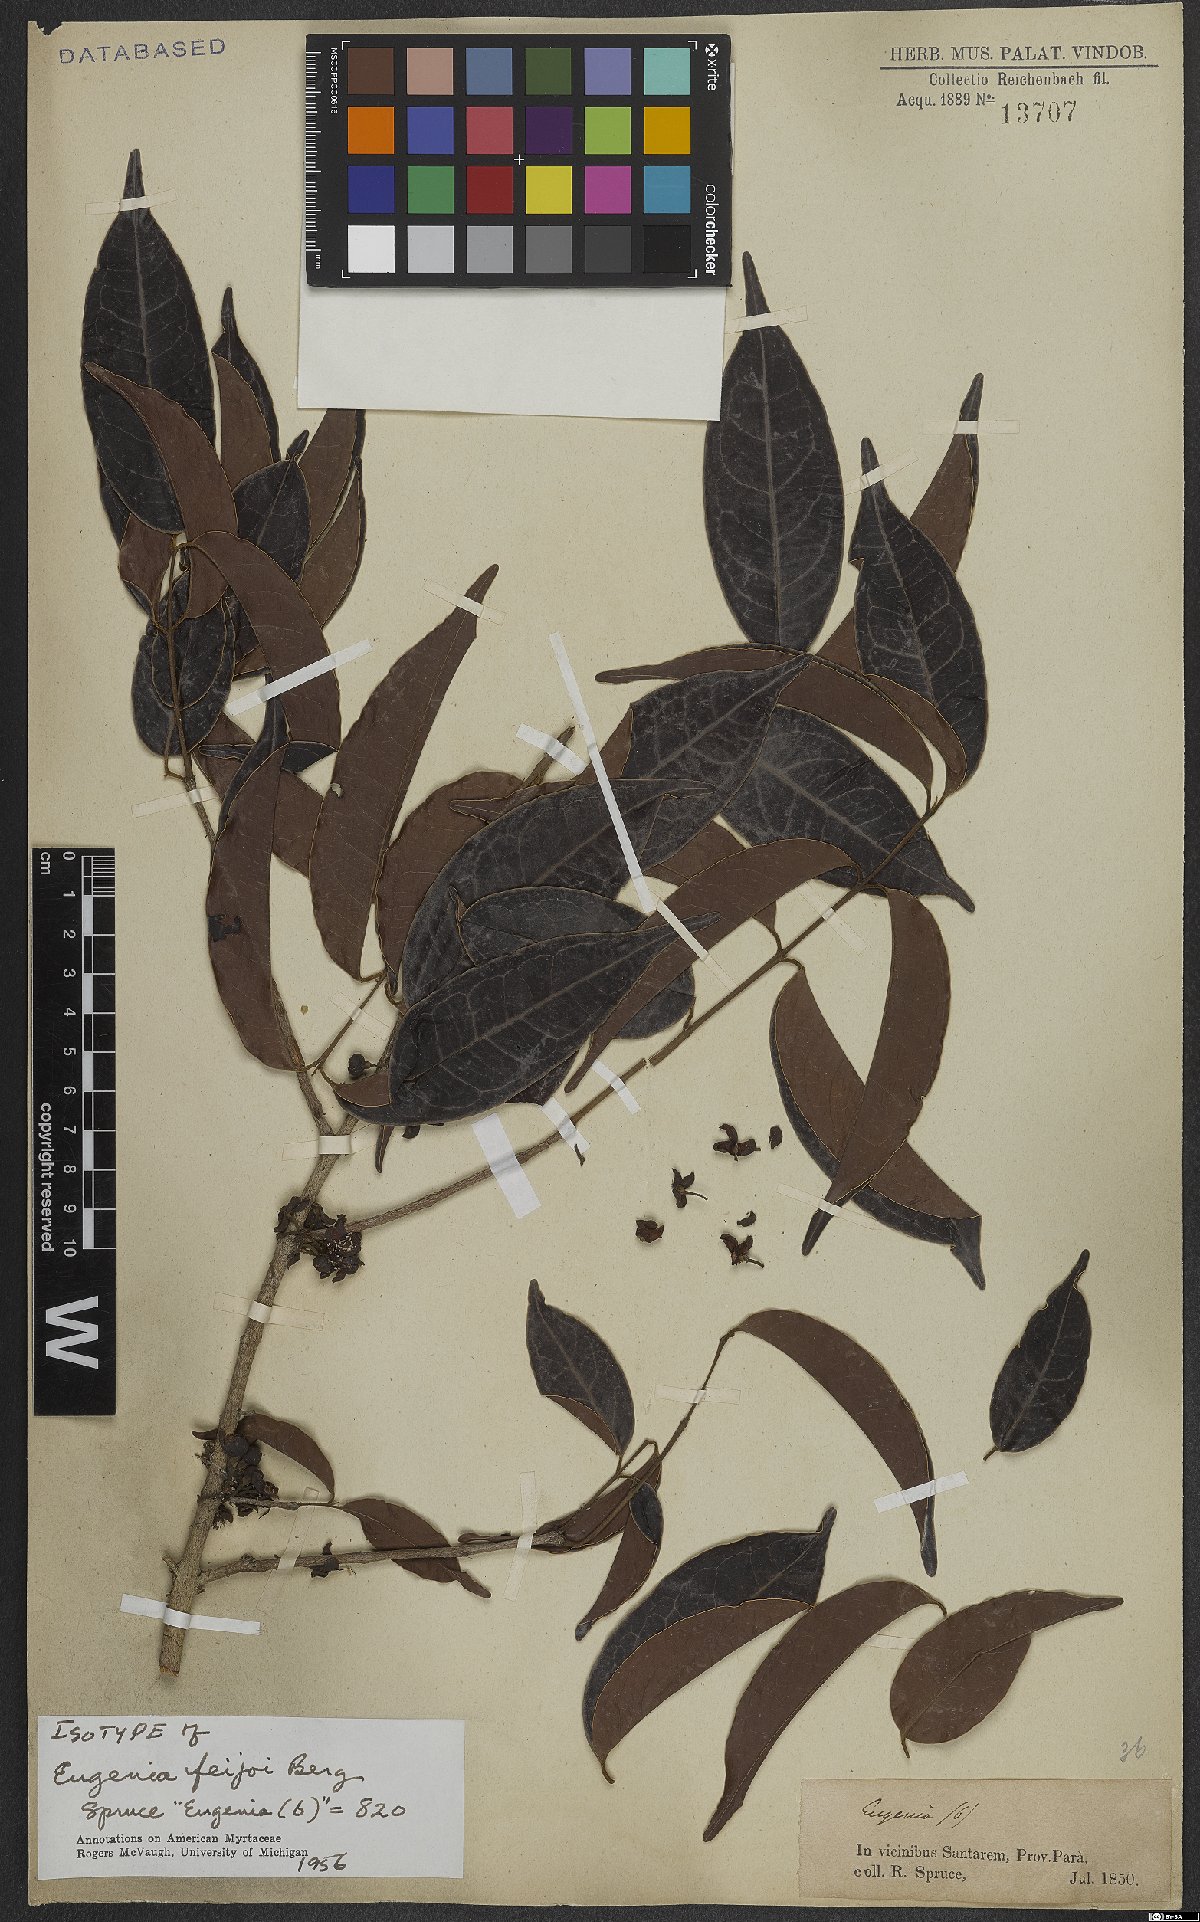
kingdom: Plantae
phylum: Tracheophyta
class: Magnoliopsida
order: Myrtales
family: Myrtaceae
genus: Eugenia
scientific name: Eugenia feijoi
